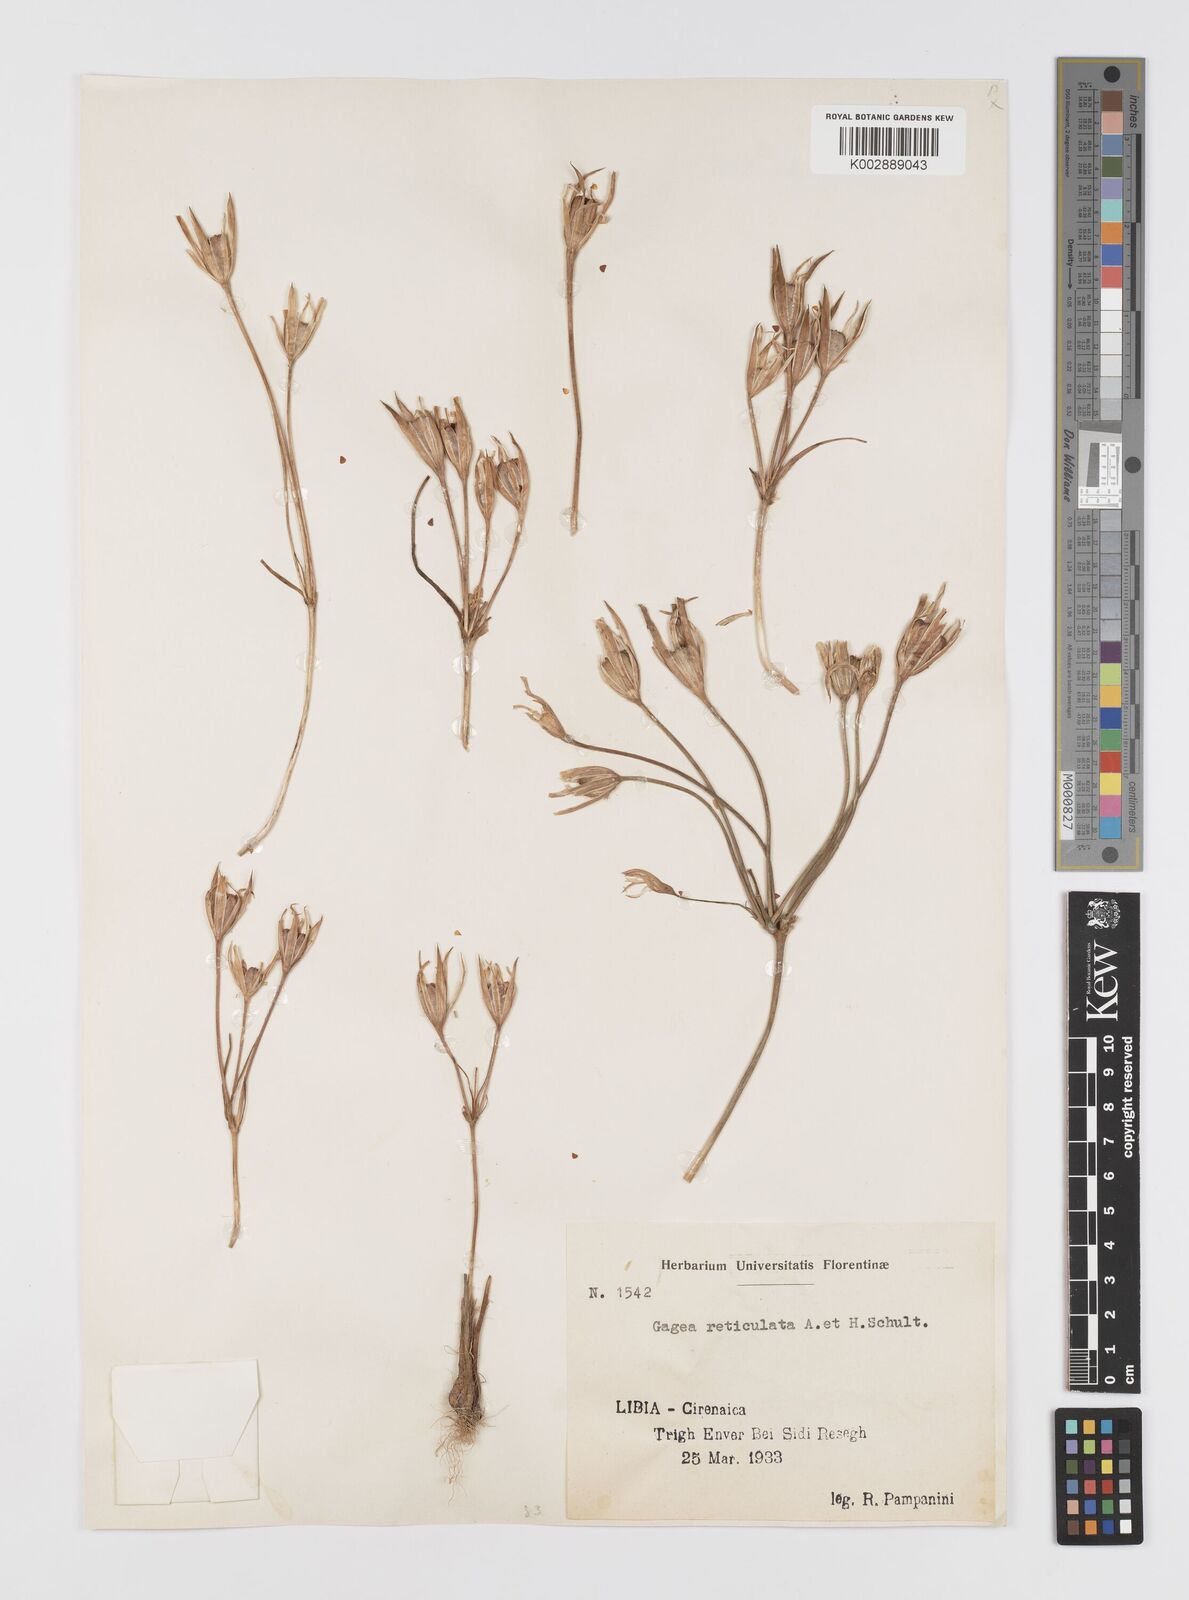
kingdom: Plantae
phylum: Tracheophyta
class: Liliopsida
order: Liliales
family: Liliaceae
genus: Gagea
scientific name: Gagea reticulata
